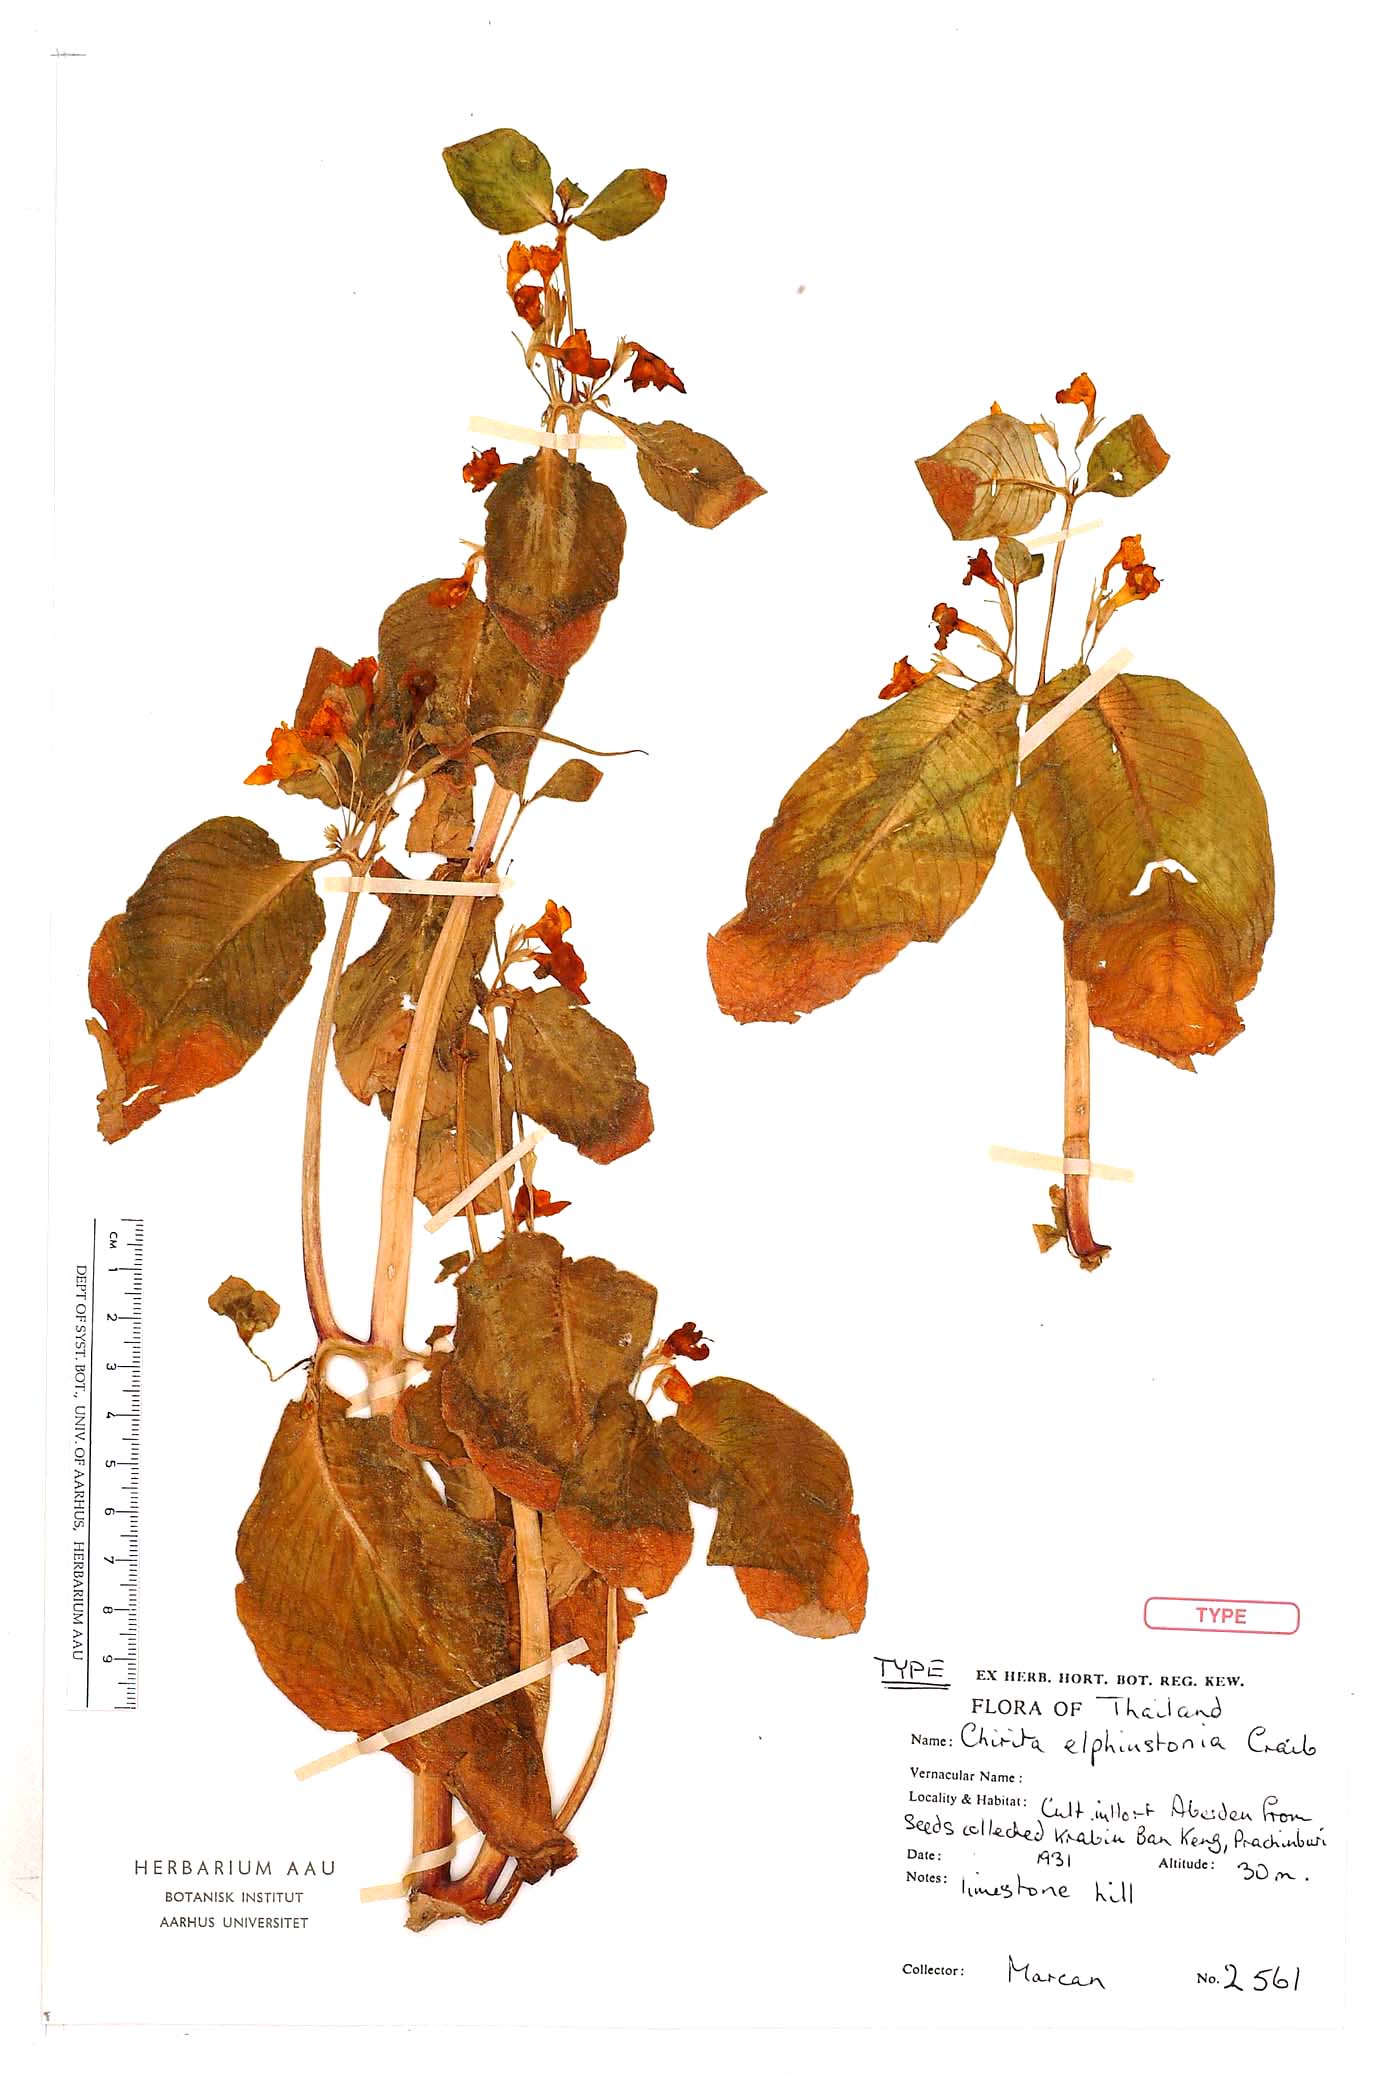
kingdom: Plantae
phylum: Tracheophyta
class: Magnoliopsida
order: Lamiales
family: Gesneriaceae
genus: Microchirita
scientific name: Microchirita elphinstonia
